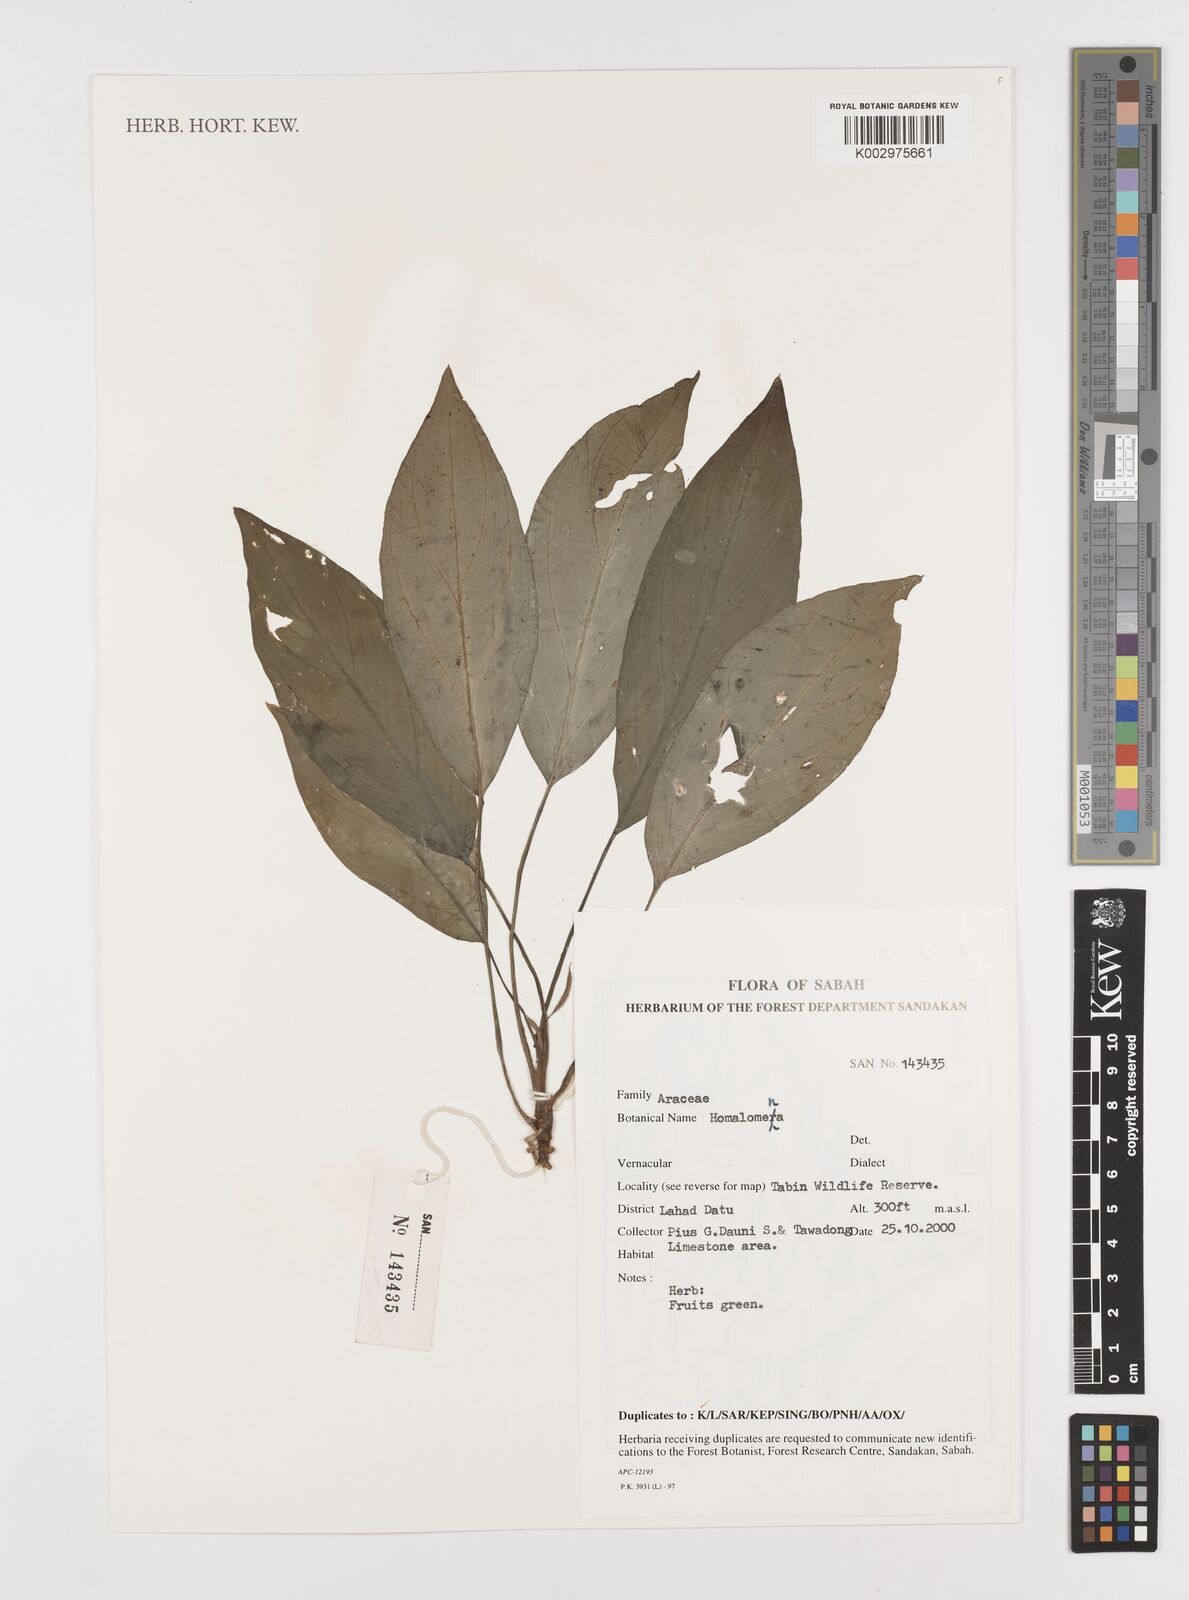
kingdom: Plantae
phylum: Tracheophyta
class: Liliopsida
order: Alismatales
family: Araceae
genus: Homalomena
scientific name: Homalomena
